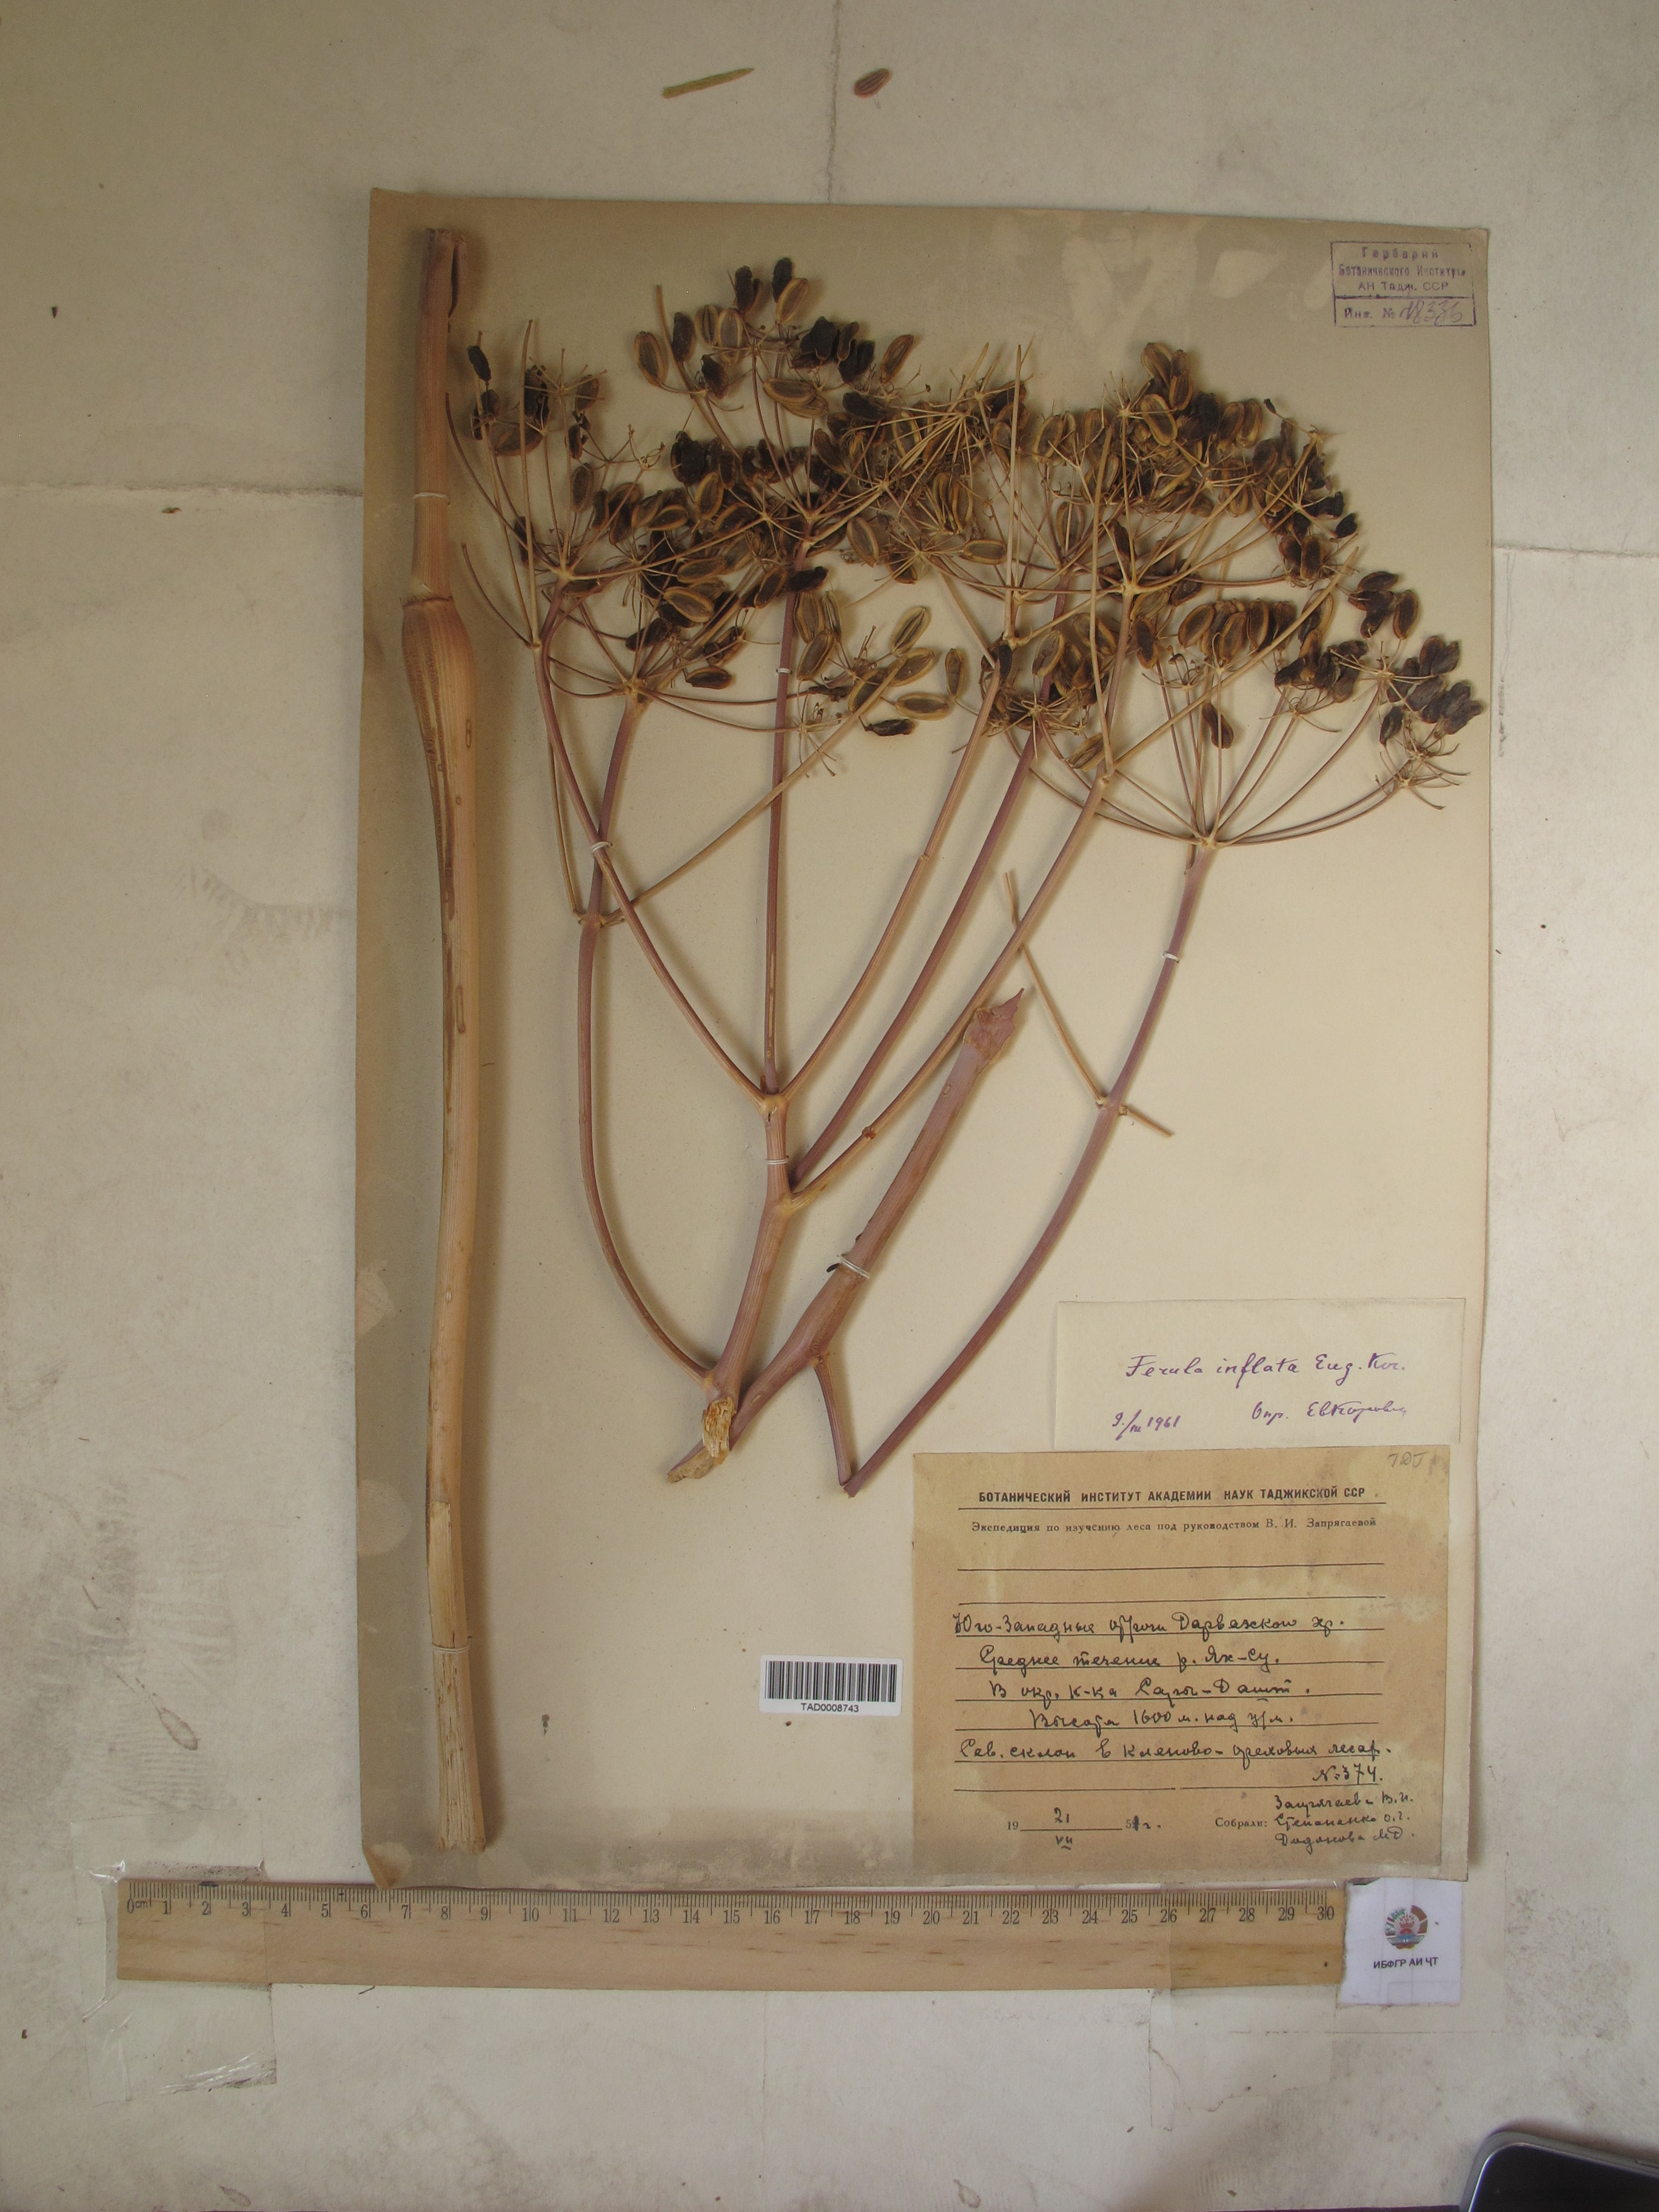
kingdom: Plantae
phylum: Tracheophyta
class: Magnoliopsida
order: Apiales
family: Apiaceae
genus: Ferula
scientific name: Ferula gigantea
